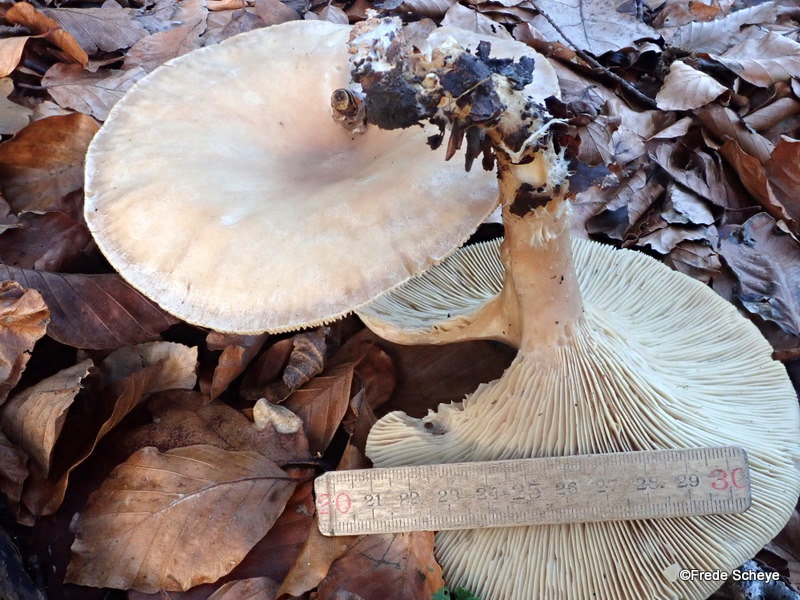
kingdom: Fungi
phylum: Basidiomycota
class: Agaricomycetes
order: Agaricales
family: Tricholomataceae
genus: Infundibulicybe
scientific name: Infundibulicybe geotropa
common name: stor tragthat
